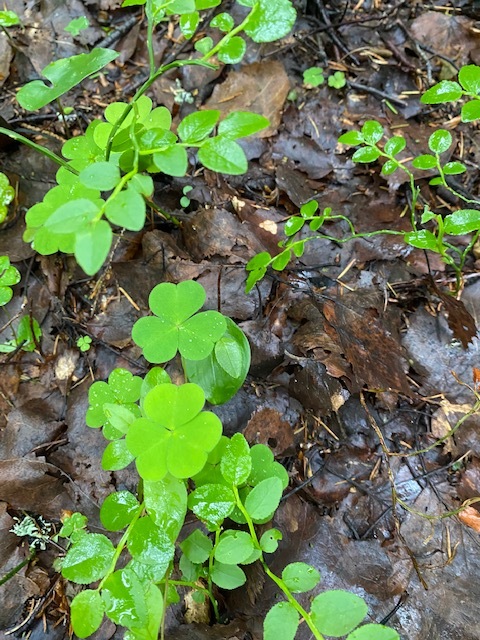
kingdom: Plantae
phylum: Tracheophyta
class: Magnoliopsida
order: Oxalidales
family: Oxalidaceae
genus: Oxalis
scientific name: Oxalis acetosella
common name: Wood-sorrel
